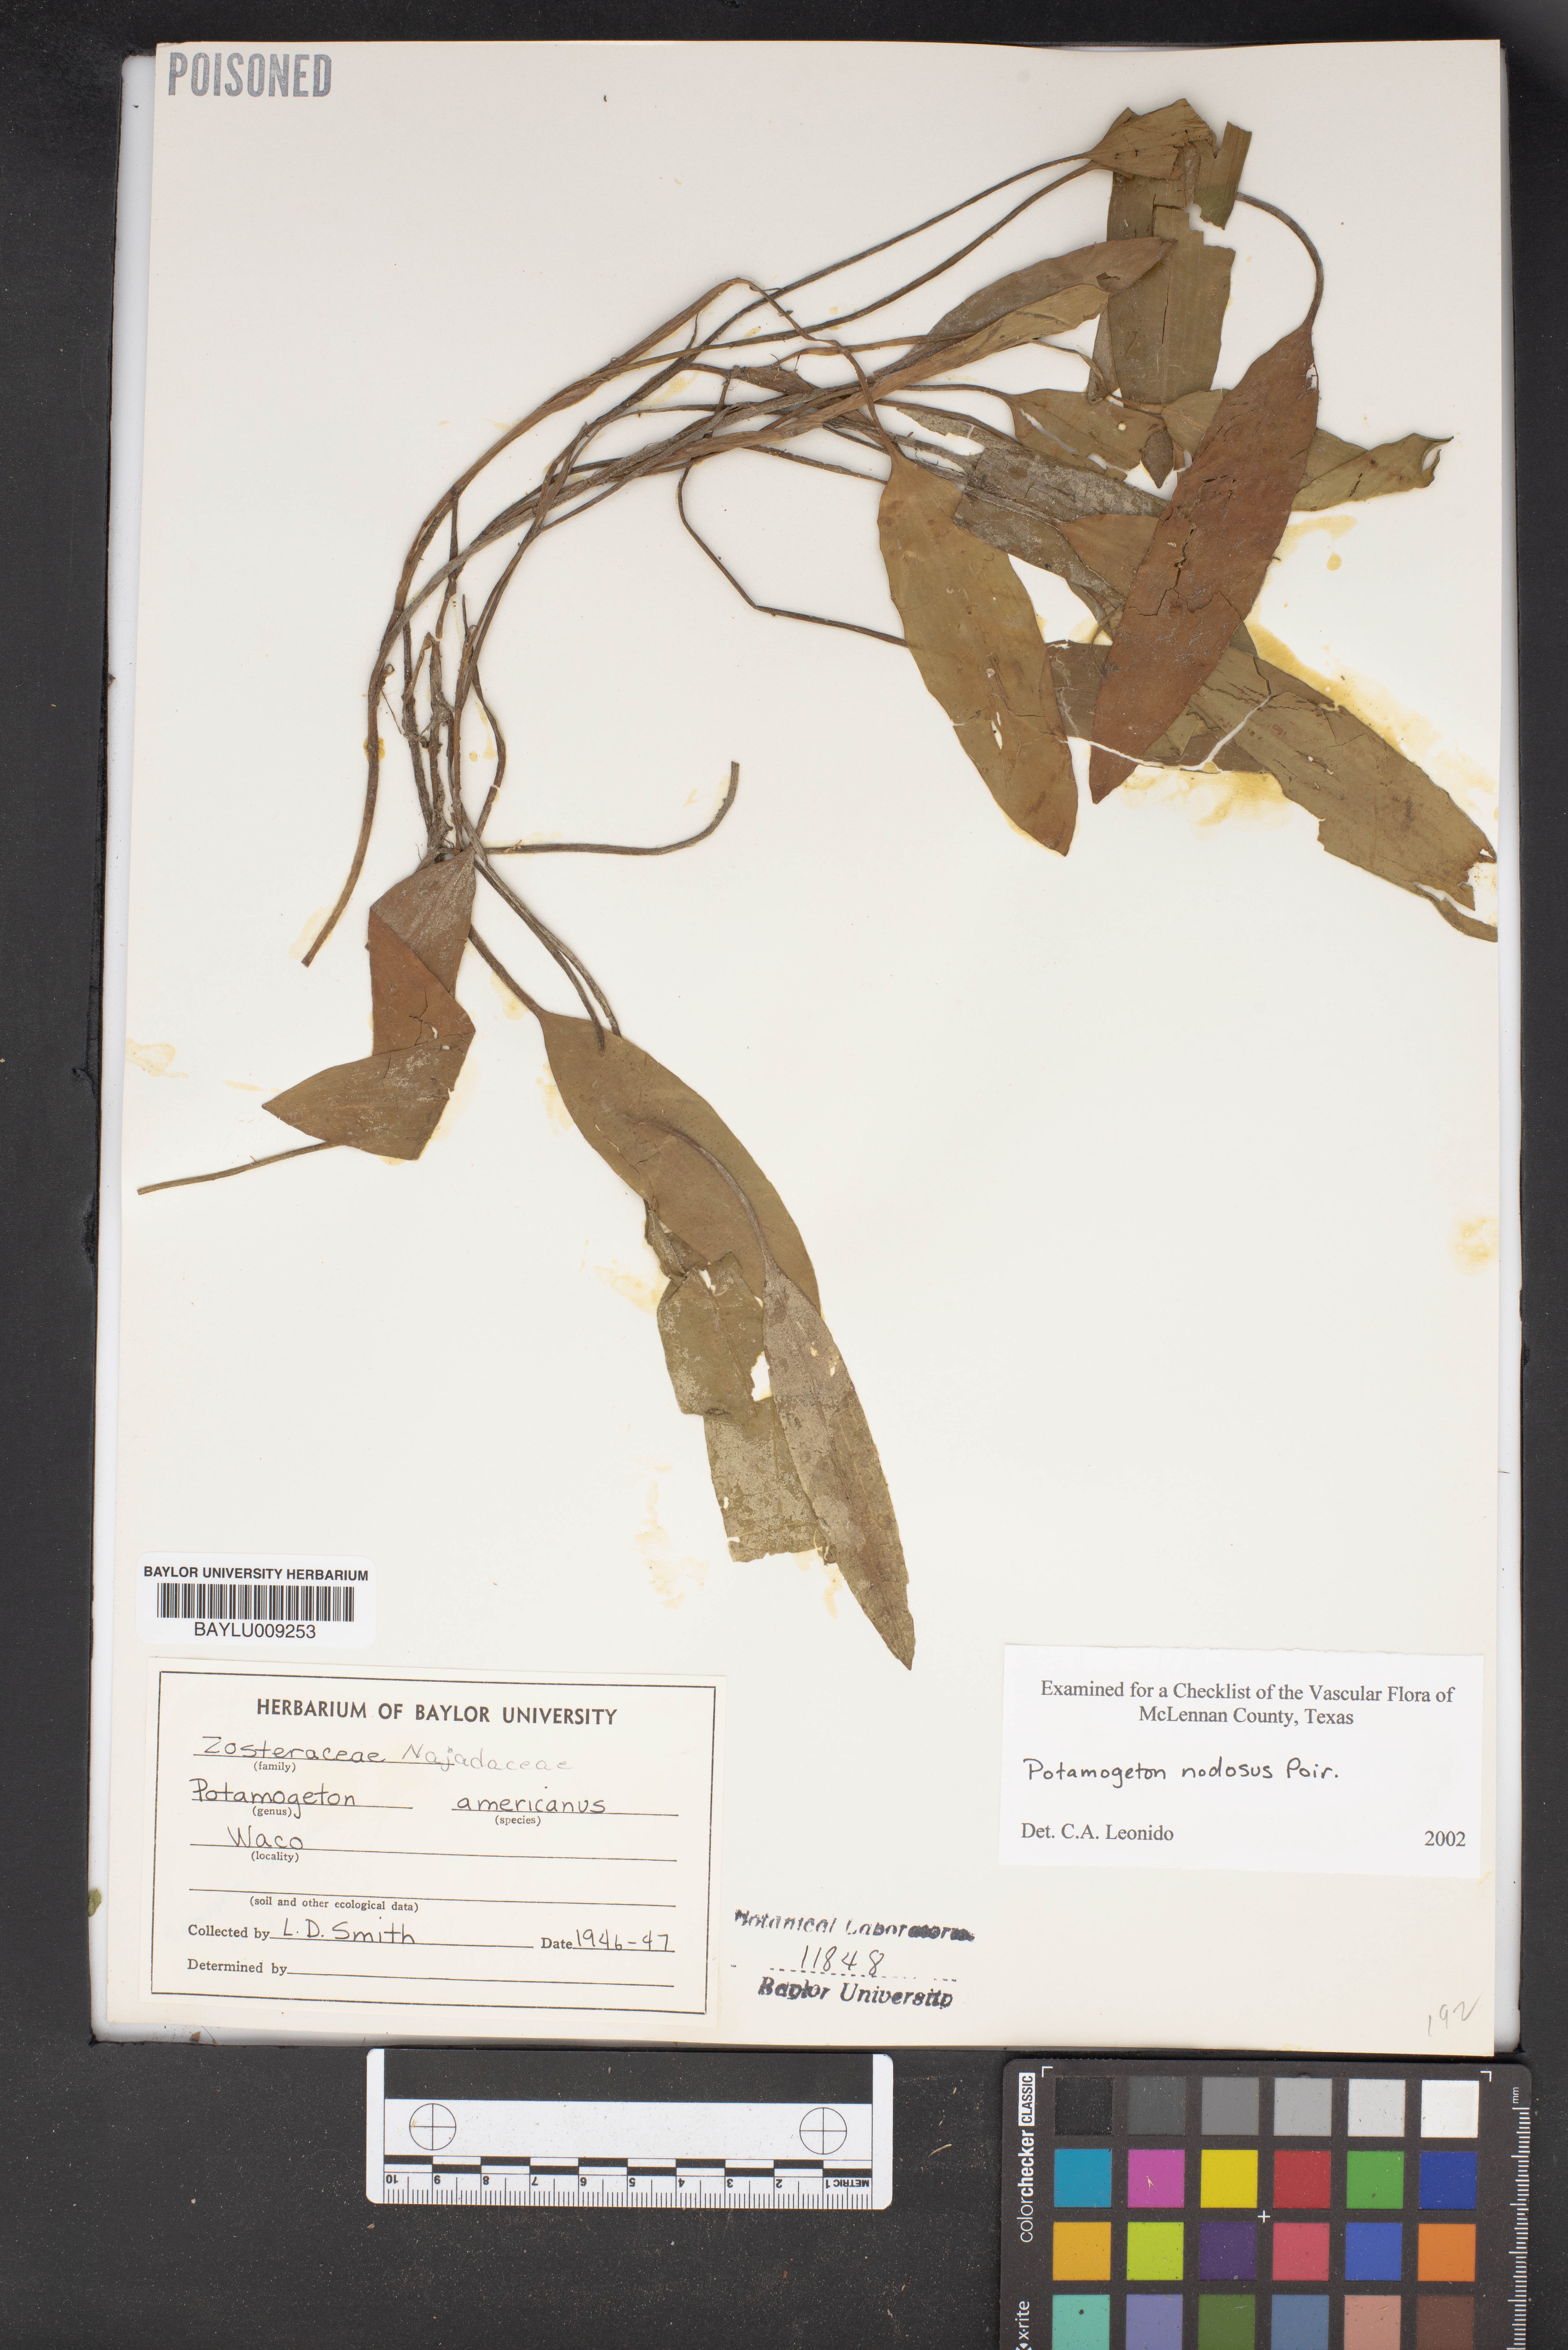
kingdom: Plantae
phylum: Tracheophyta
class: Liliopsida
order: Alismatales
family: Potamogetonaceae
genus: Potamogeton
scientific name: Potamogeton nodosus
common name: Loddon pondweed
